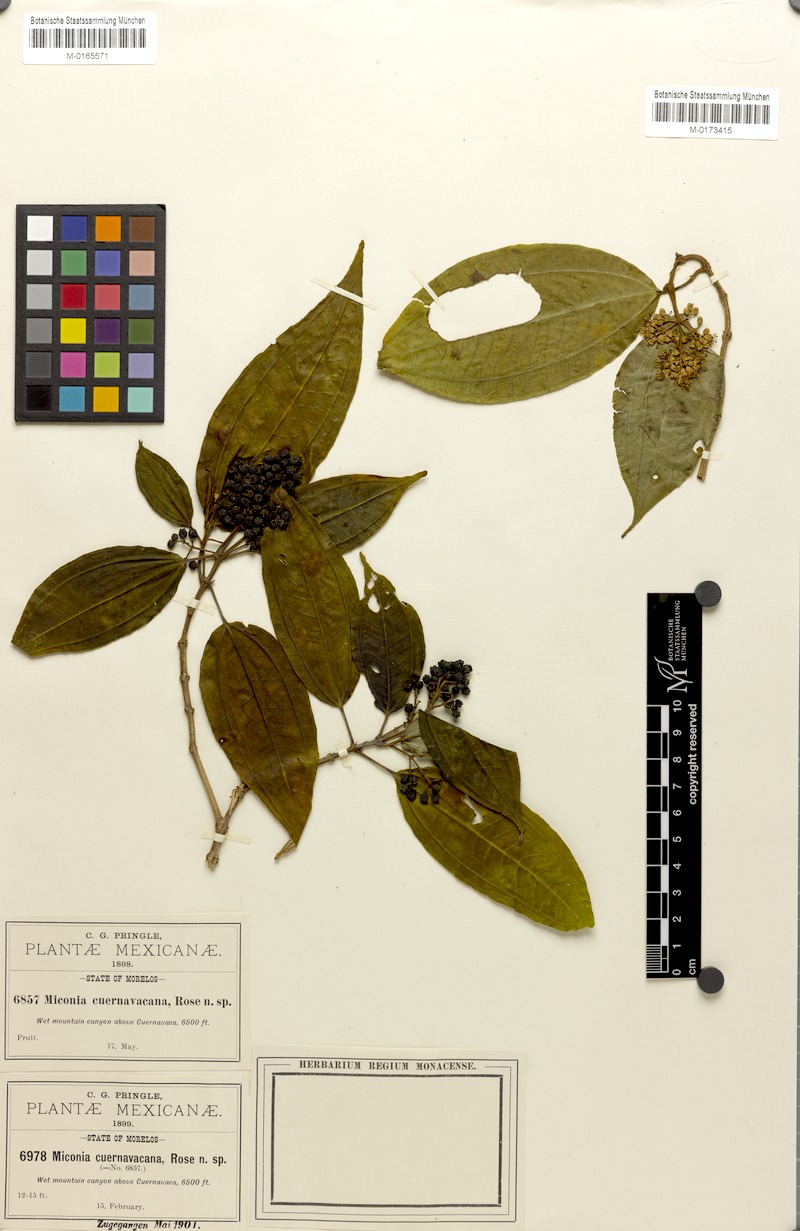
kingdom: Plantae
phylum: Tracheophyta
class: Magnoliopsida
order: Myrtales
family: Melastomataceae
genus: Miconia
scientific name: Miconia cuernavacana
